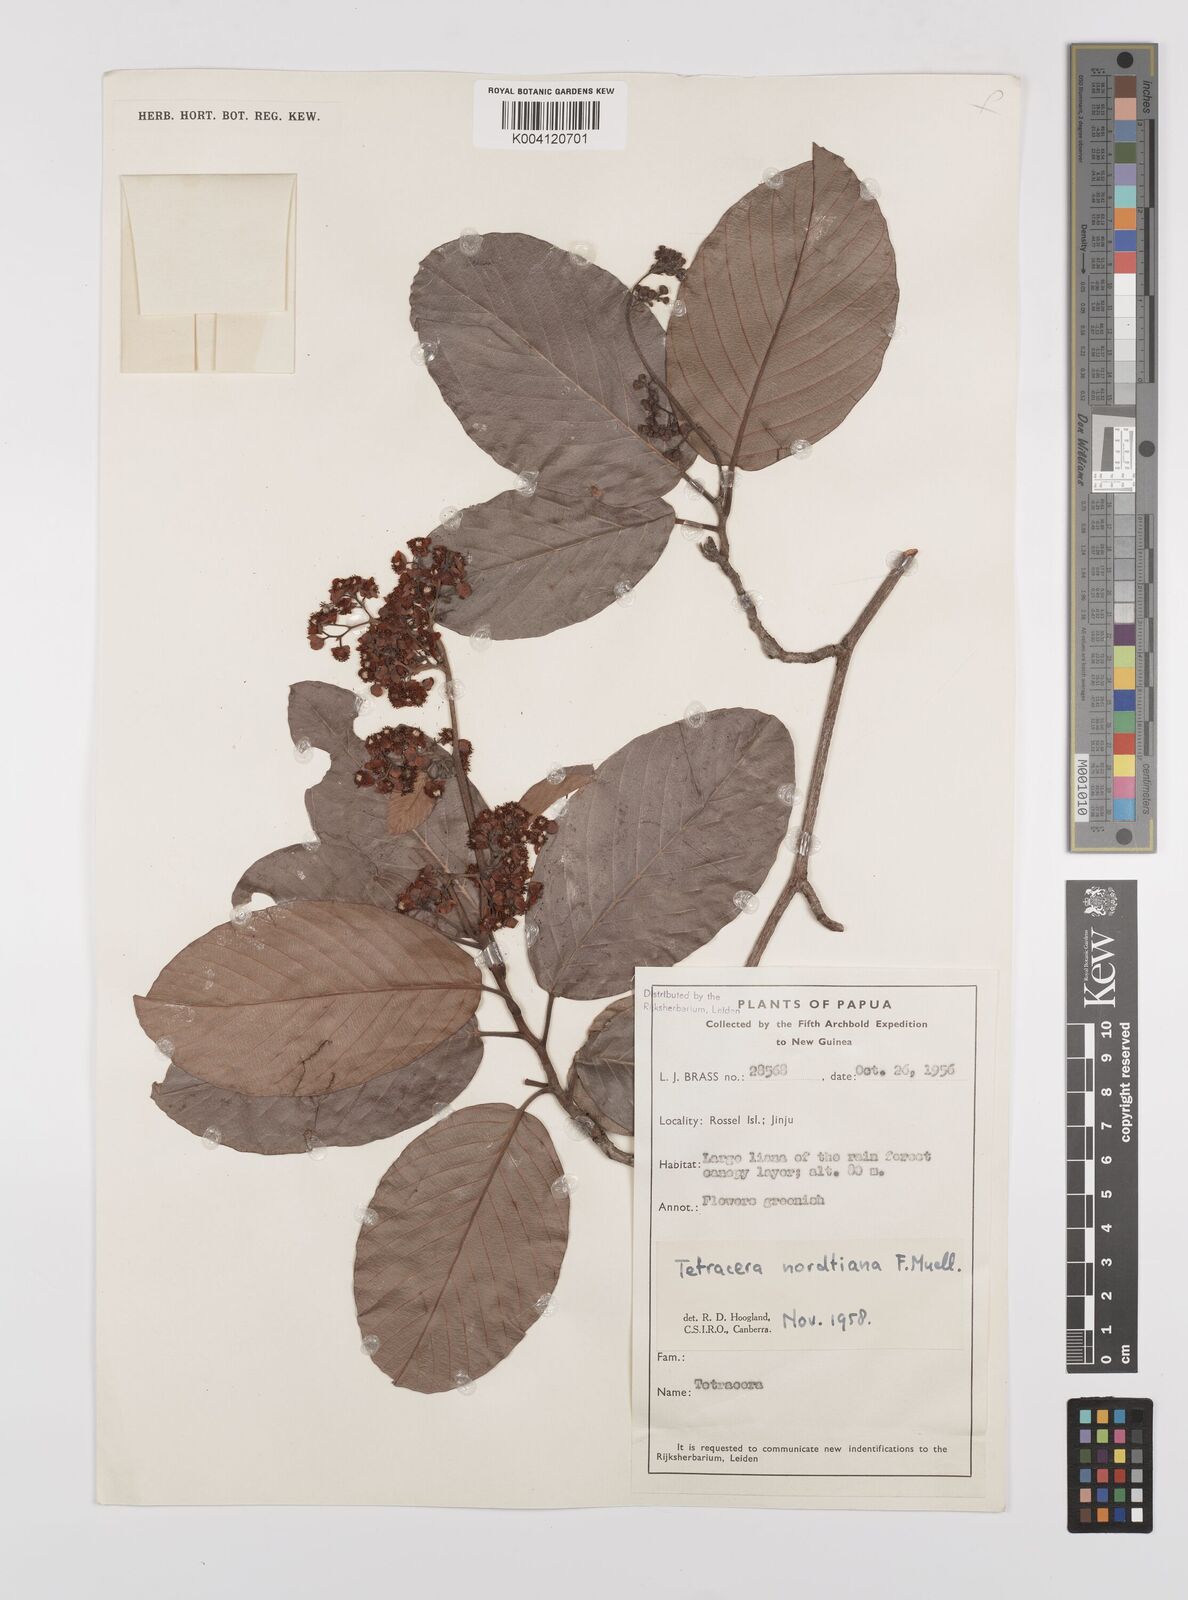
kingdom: Plantae
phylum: Tracheophyta
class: Magnoliopsida
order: Dilleniales
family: Dilleniaceae
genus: Tetracera
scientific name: Tetracera nordtiana
